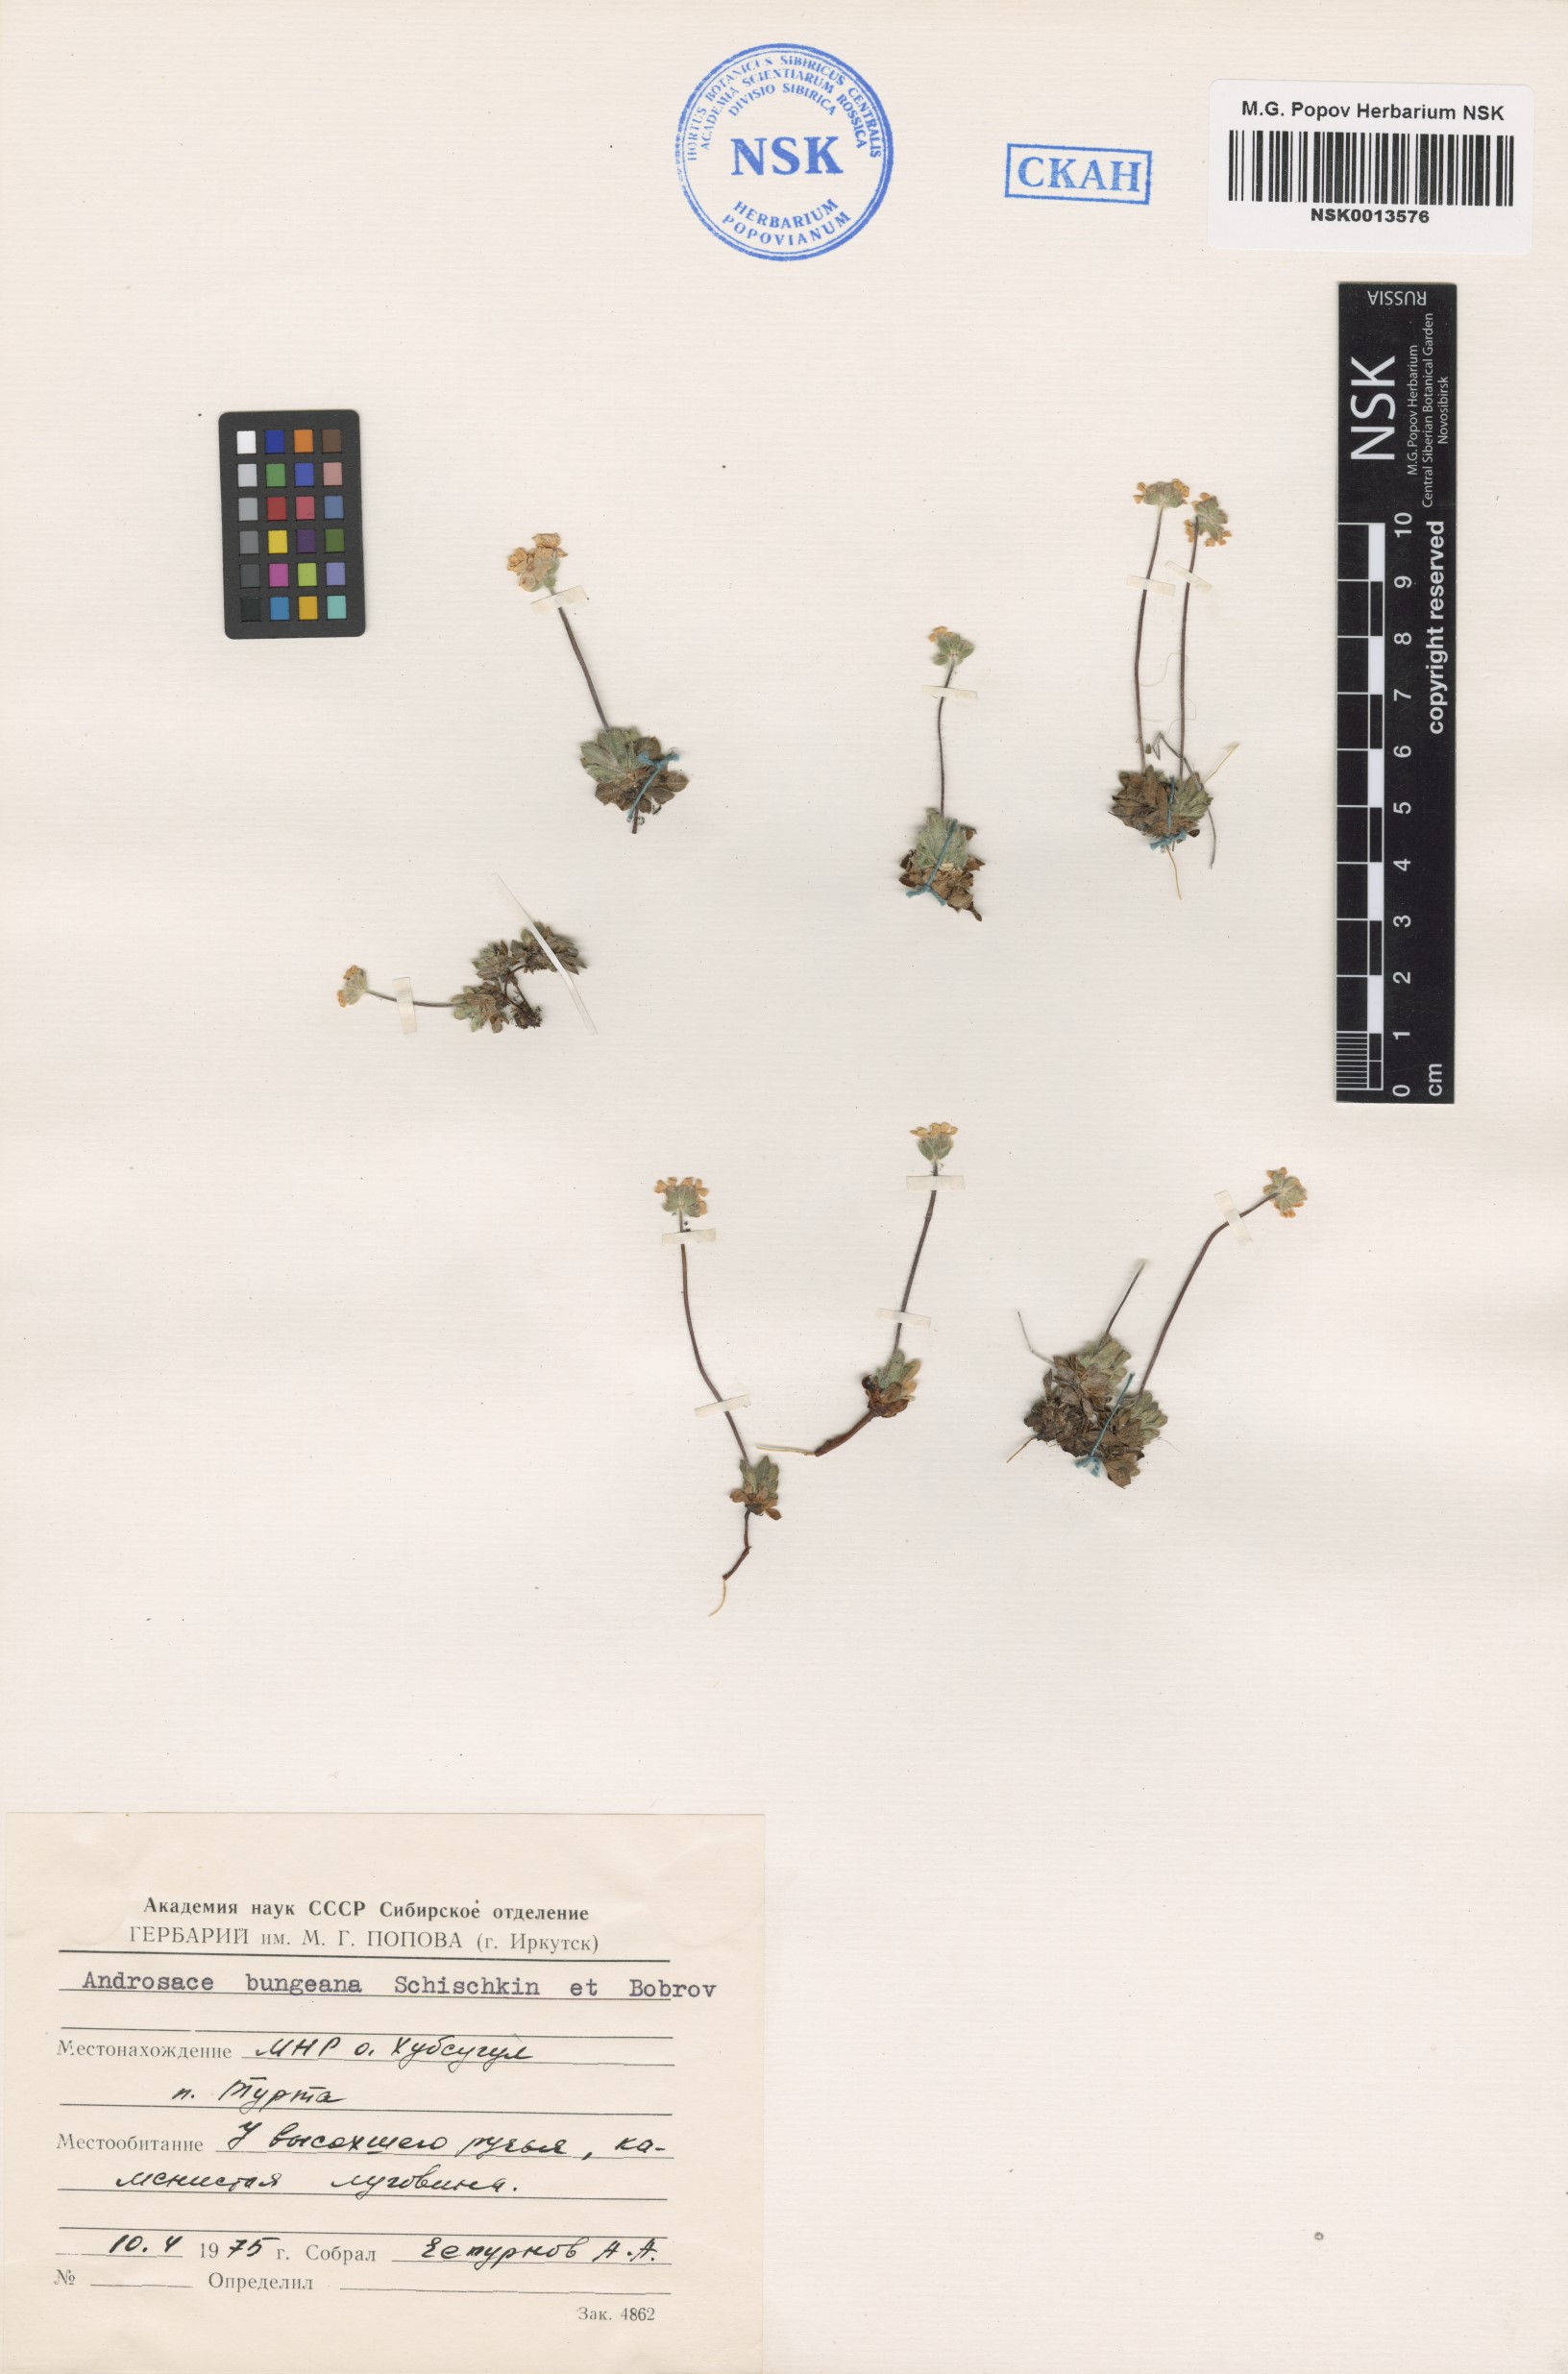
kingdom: Plantae
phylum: Tracheophyta
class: Magnoliopsida
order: Ericales
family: Primulaceae
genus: Androsace
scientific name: Androsace bungeana
